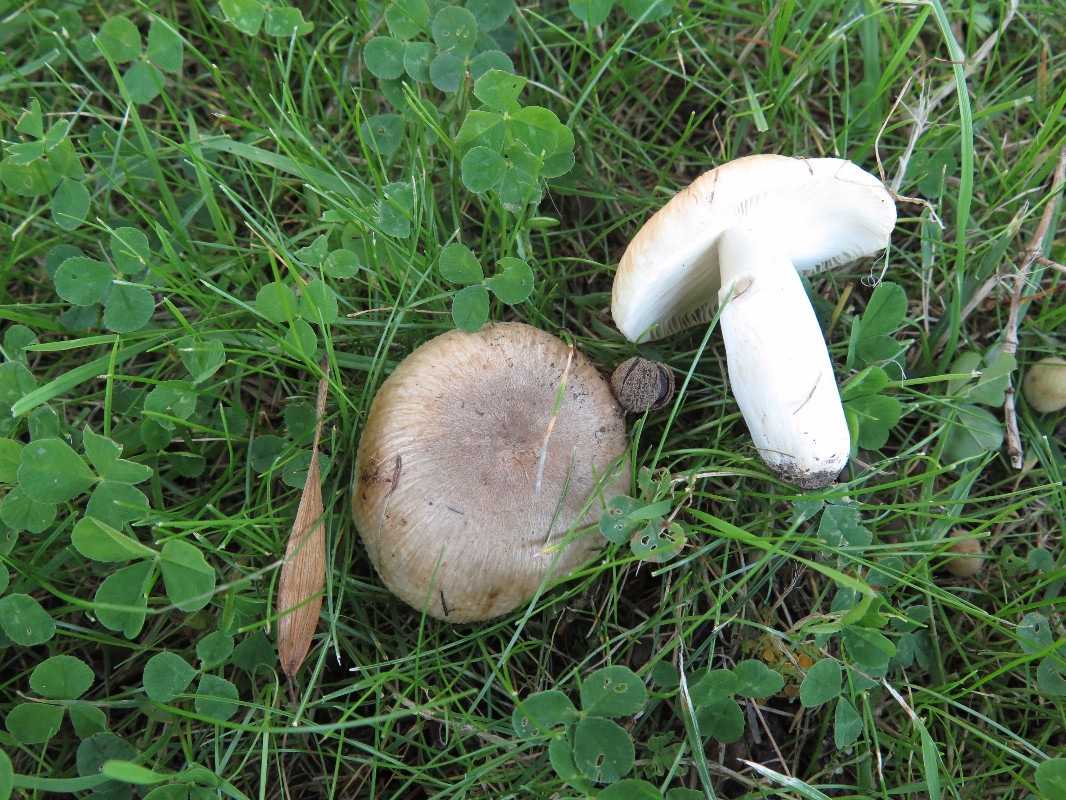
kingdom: Fungi
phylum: Basidiomycota
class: Agaricomycetes
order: Russulales
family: Russulaceae
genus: Russula
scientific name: Russula recondita
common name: mild kam-skørhat
